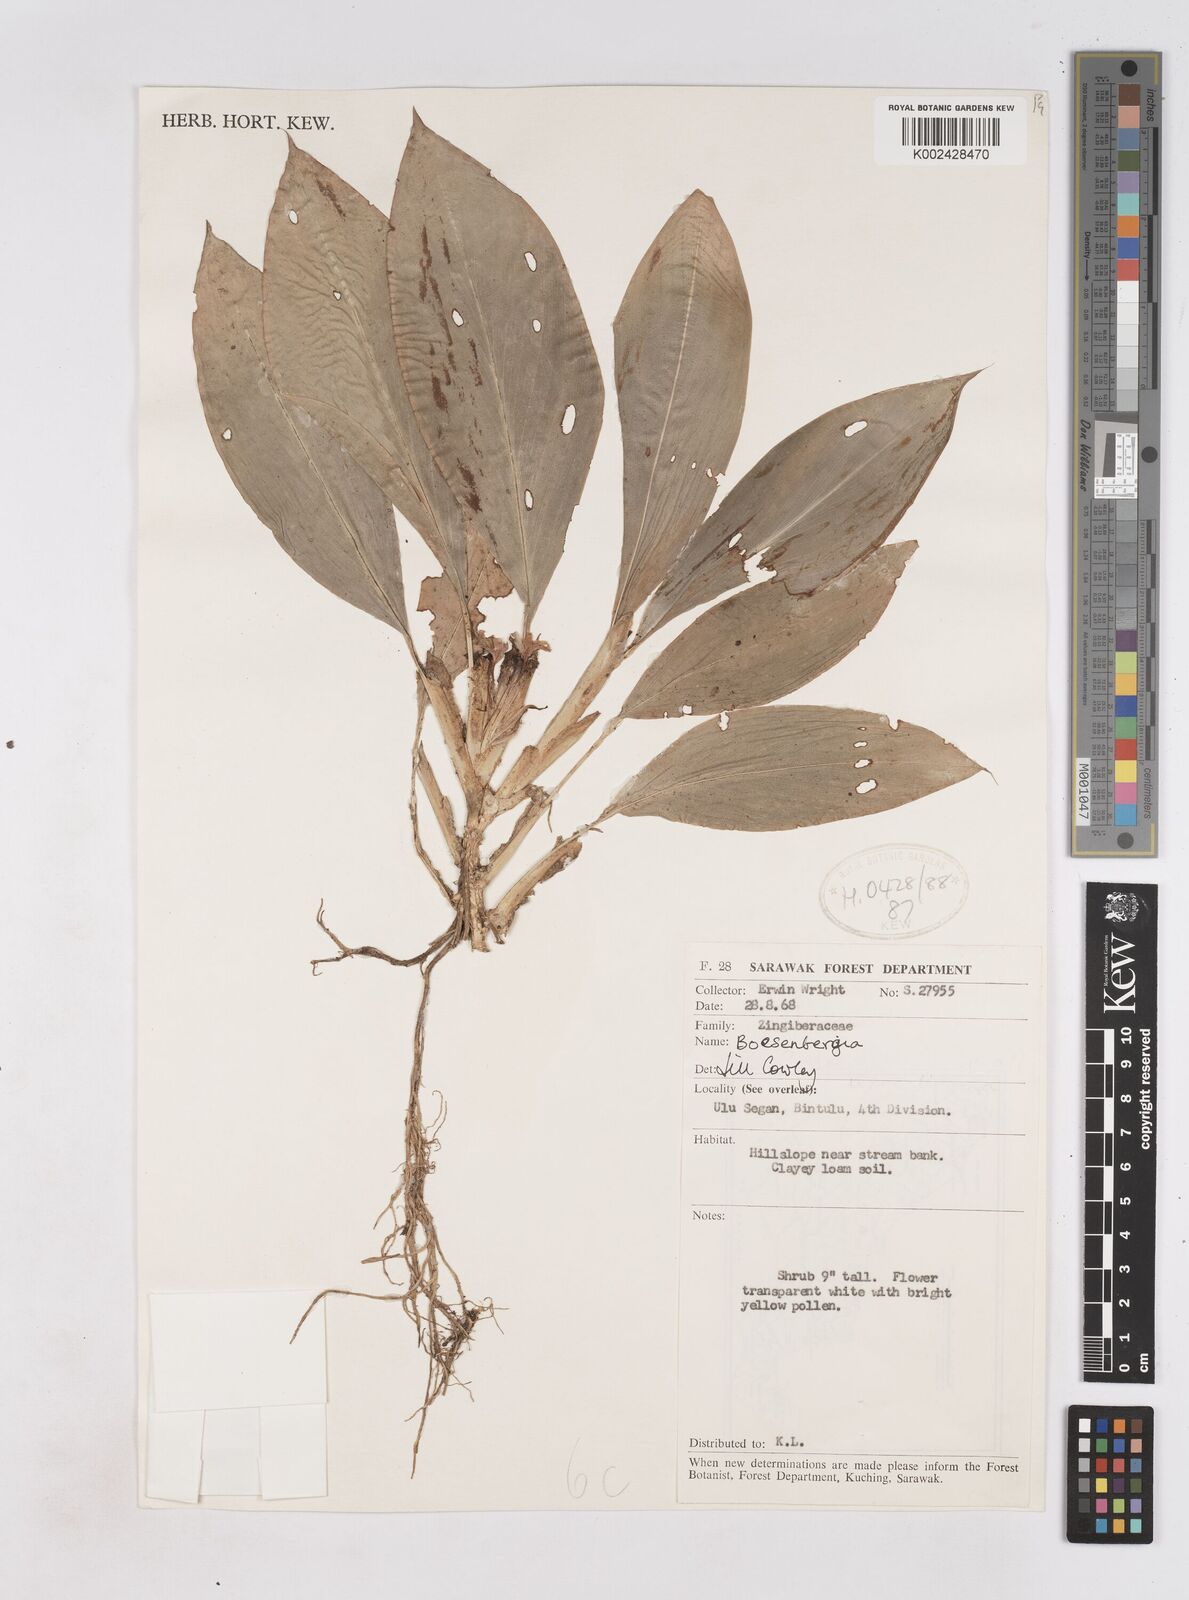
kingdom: Plantae
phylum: Tracheophyta
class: Liliopsida
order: Zingiberales
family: Zingiberaceae
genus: Boesenbergia
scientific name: Boesenbergia
